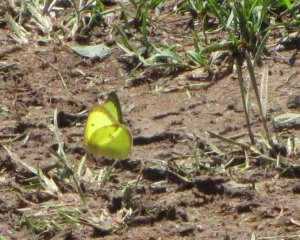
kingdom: Animalia
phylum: Arthropoda
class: Insecta
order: Lepidoptera
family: Pieridae
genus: Colias
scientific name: Colias philodice
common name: Clouded Sulphur
